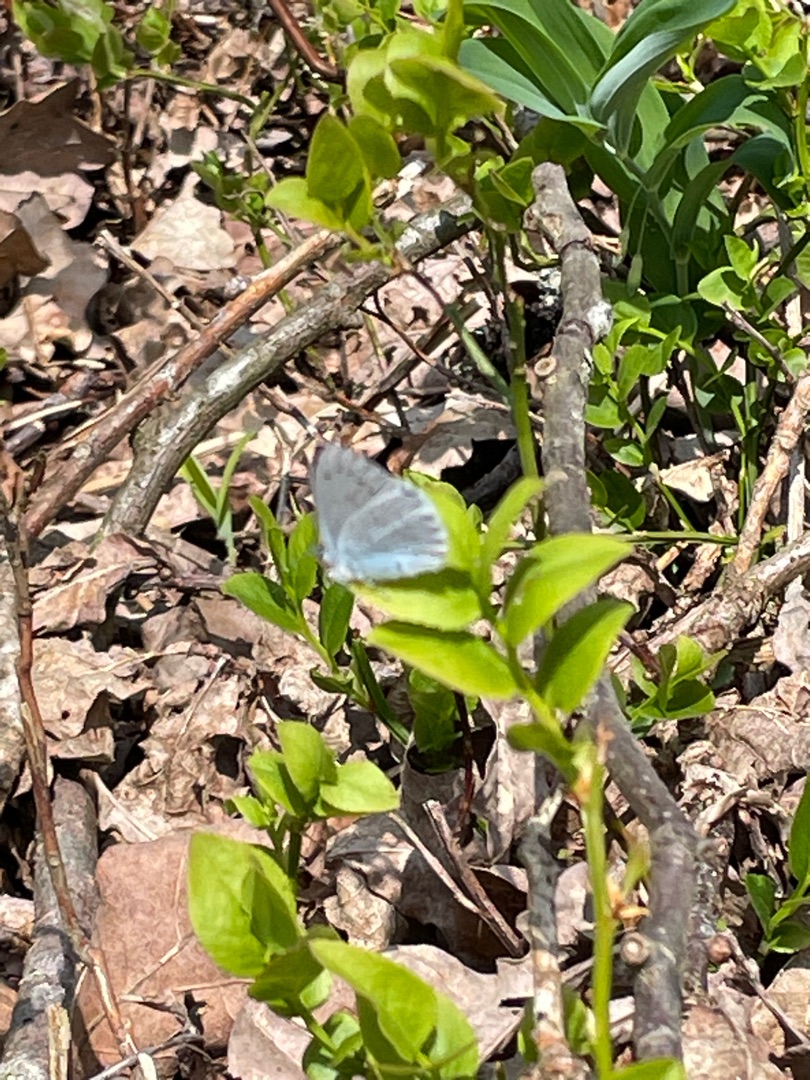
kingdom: Animalia
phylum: Arthropoda
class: Insecta
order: Lepidoptera
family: Lycaenidae
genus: Celastrina
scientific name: Celastrina argiolus
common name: Skovblåfugl
